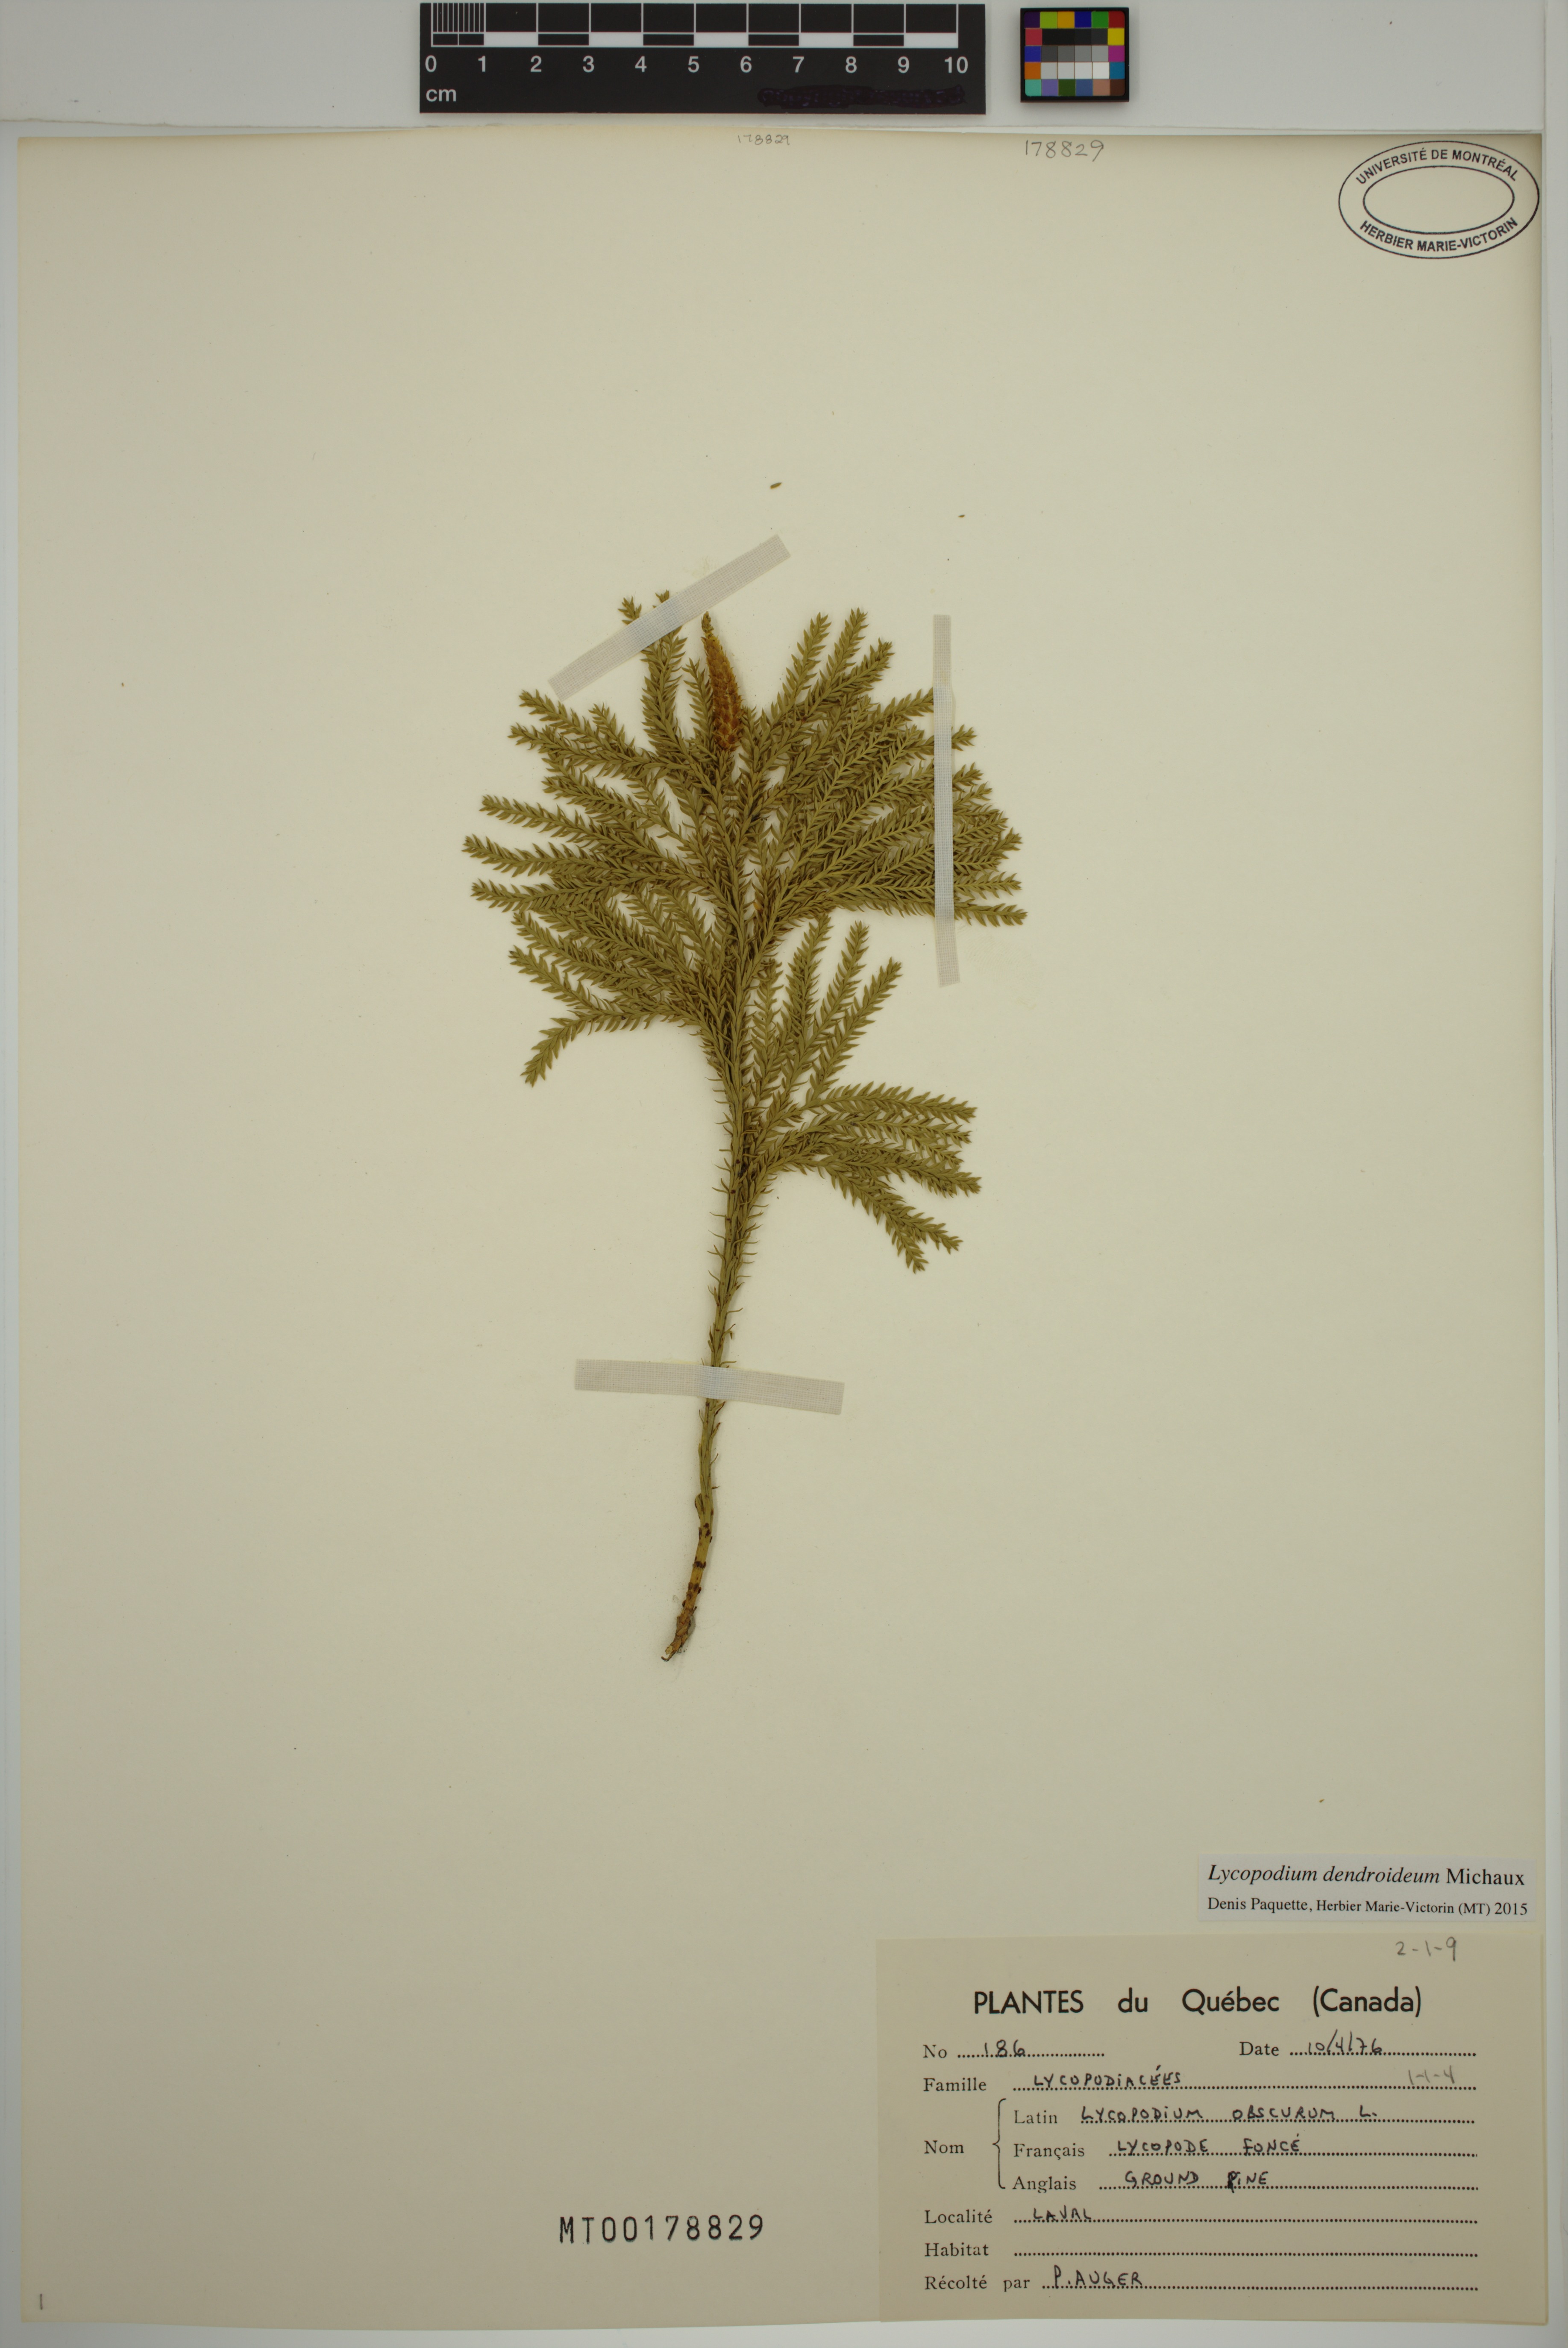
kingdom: Plantae
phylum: Tracheophyta
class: Lycopodiopsida
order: Lycopodiales
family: Lycopodiaceae
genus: Dendrolycopodium
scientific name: Dendrolycopodium dendroideum
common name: Northern tree-clubmoss
